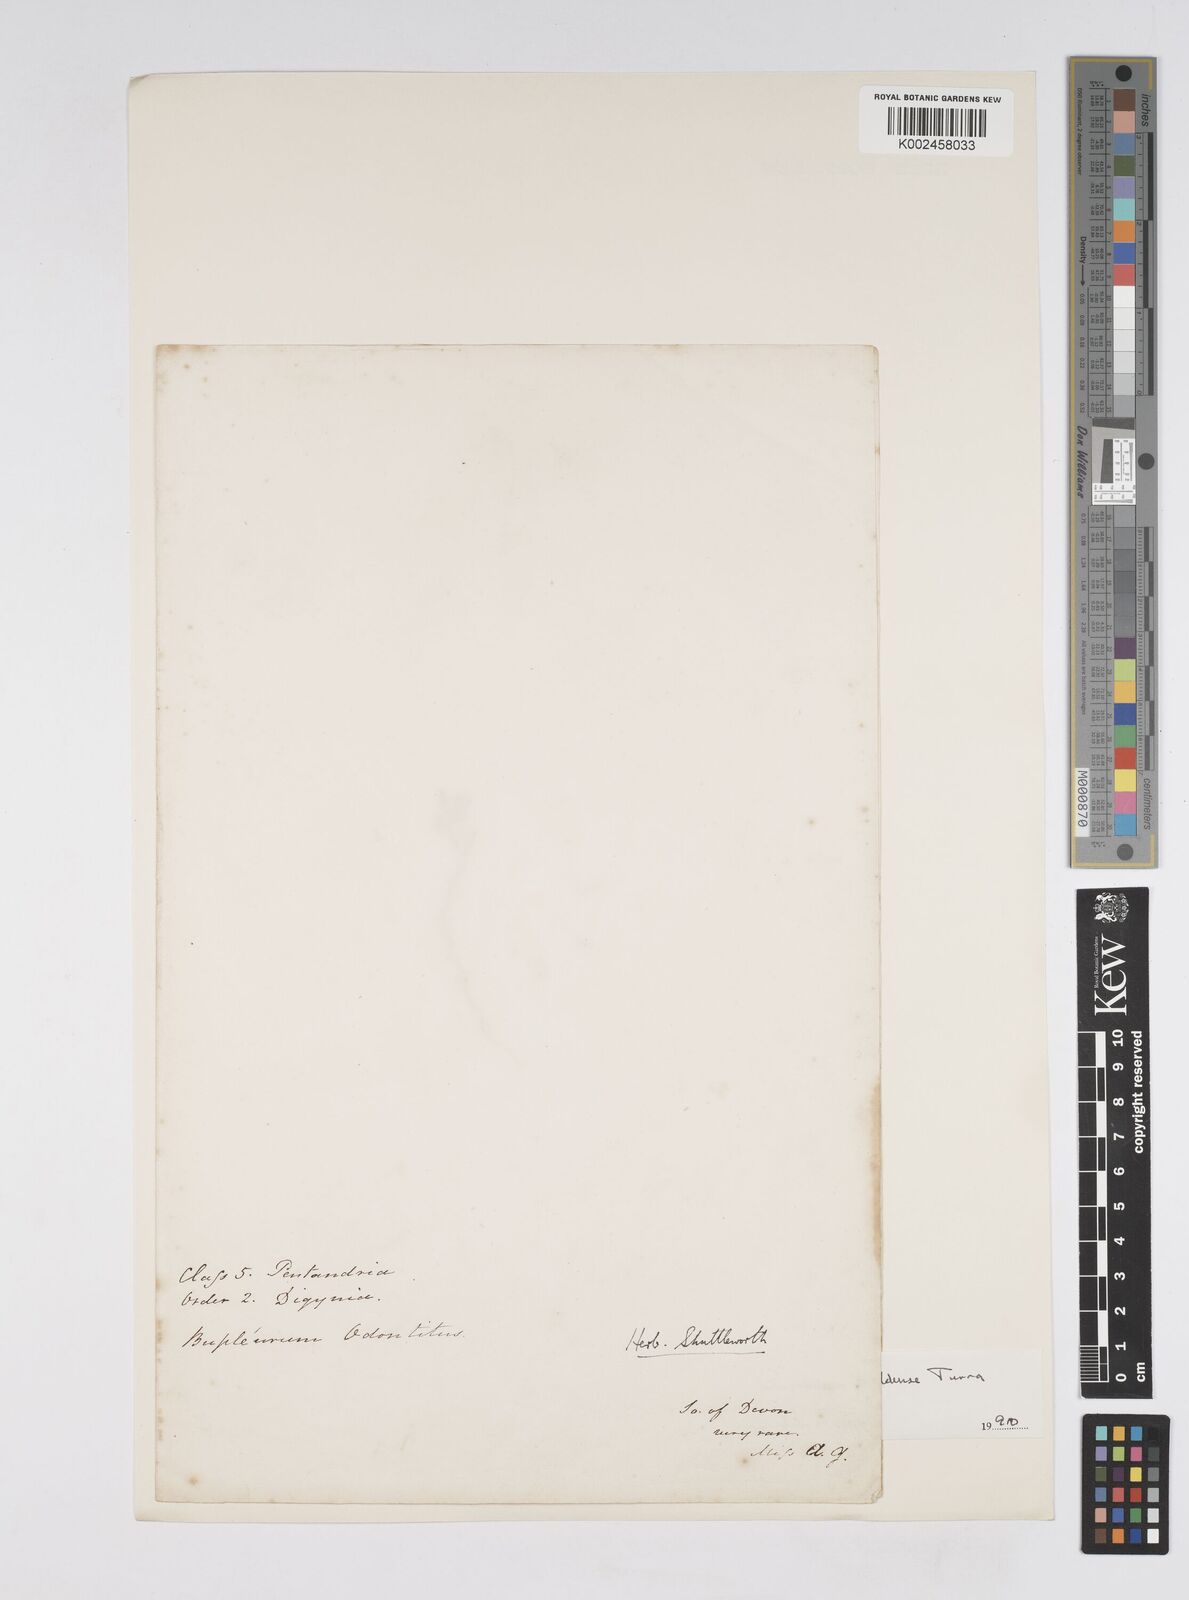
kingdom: Plantae
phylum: Tracheophyta
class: Magnoliopsida
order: Apiales
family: Apiaceae
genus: Bupleurum
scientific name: Bupleurum baldense
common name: Small hare's-ear
